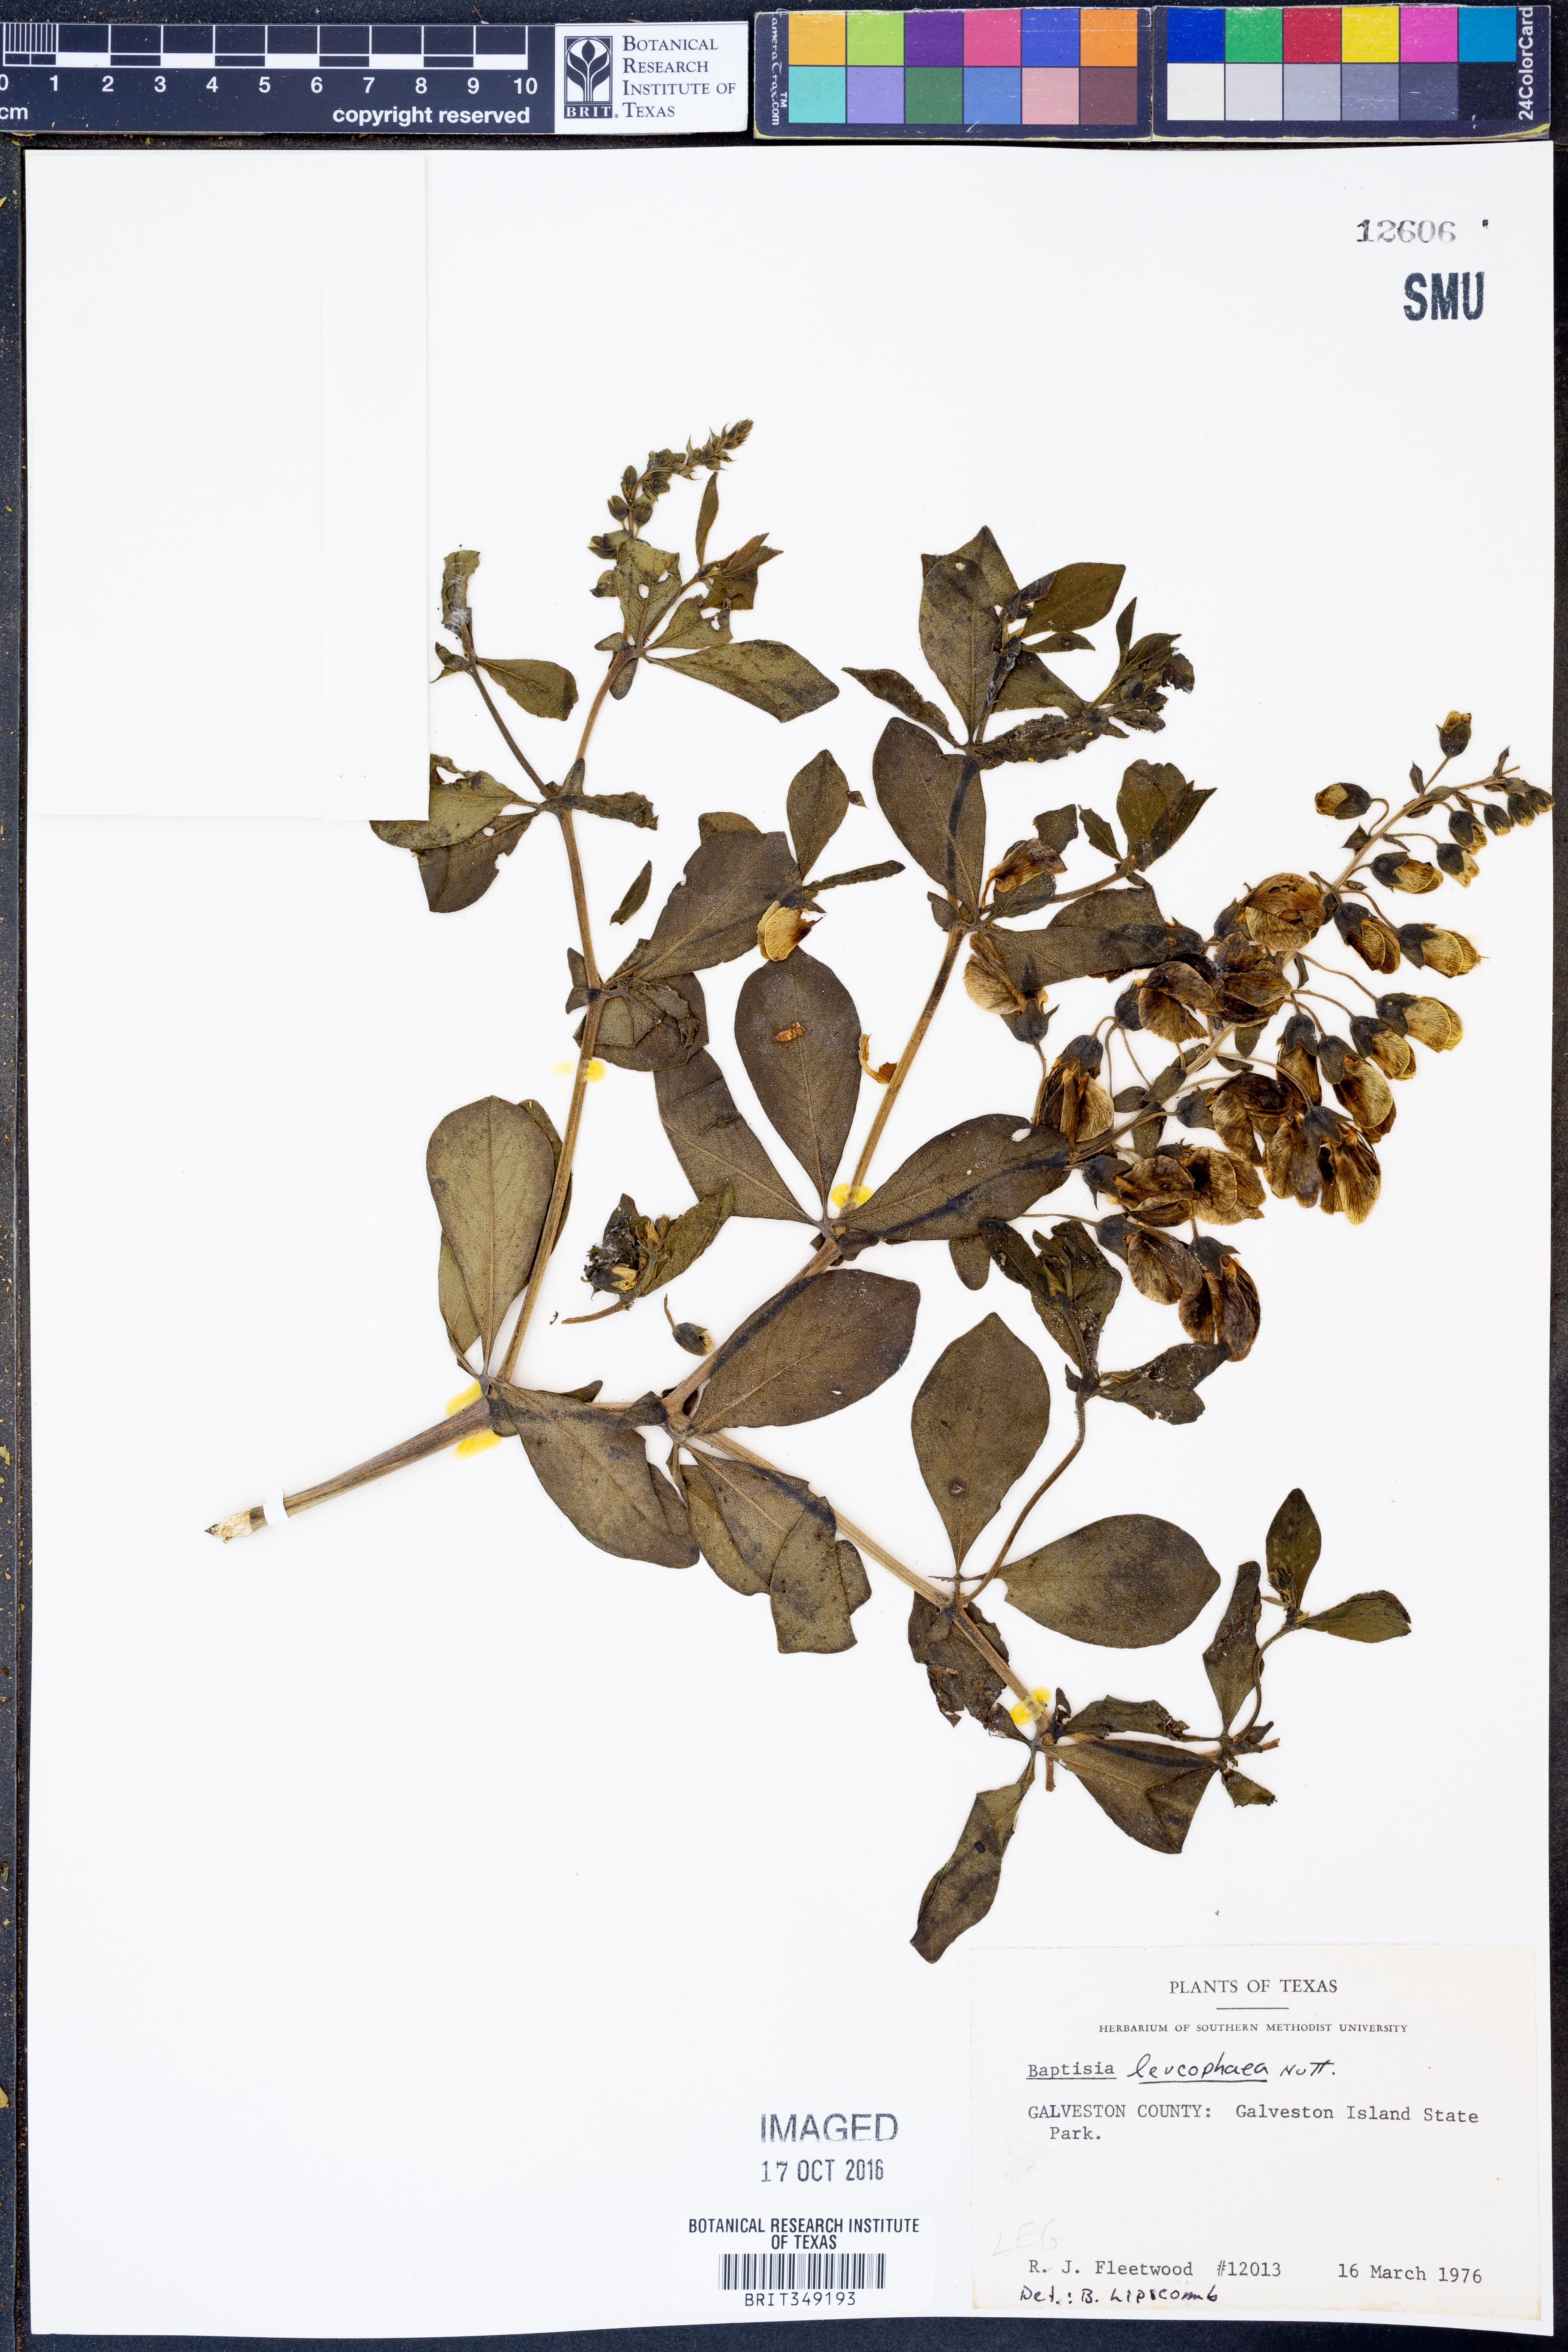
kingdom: Plantae
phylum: Tracheophyta
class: Magnoliopsida
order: Fabales
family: Fabaceae
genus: Baptisia
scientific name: Baptisia bracteata
